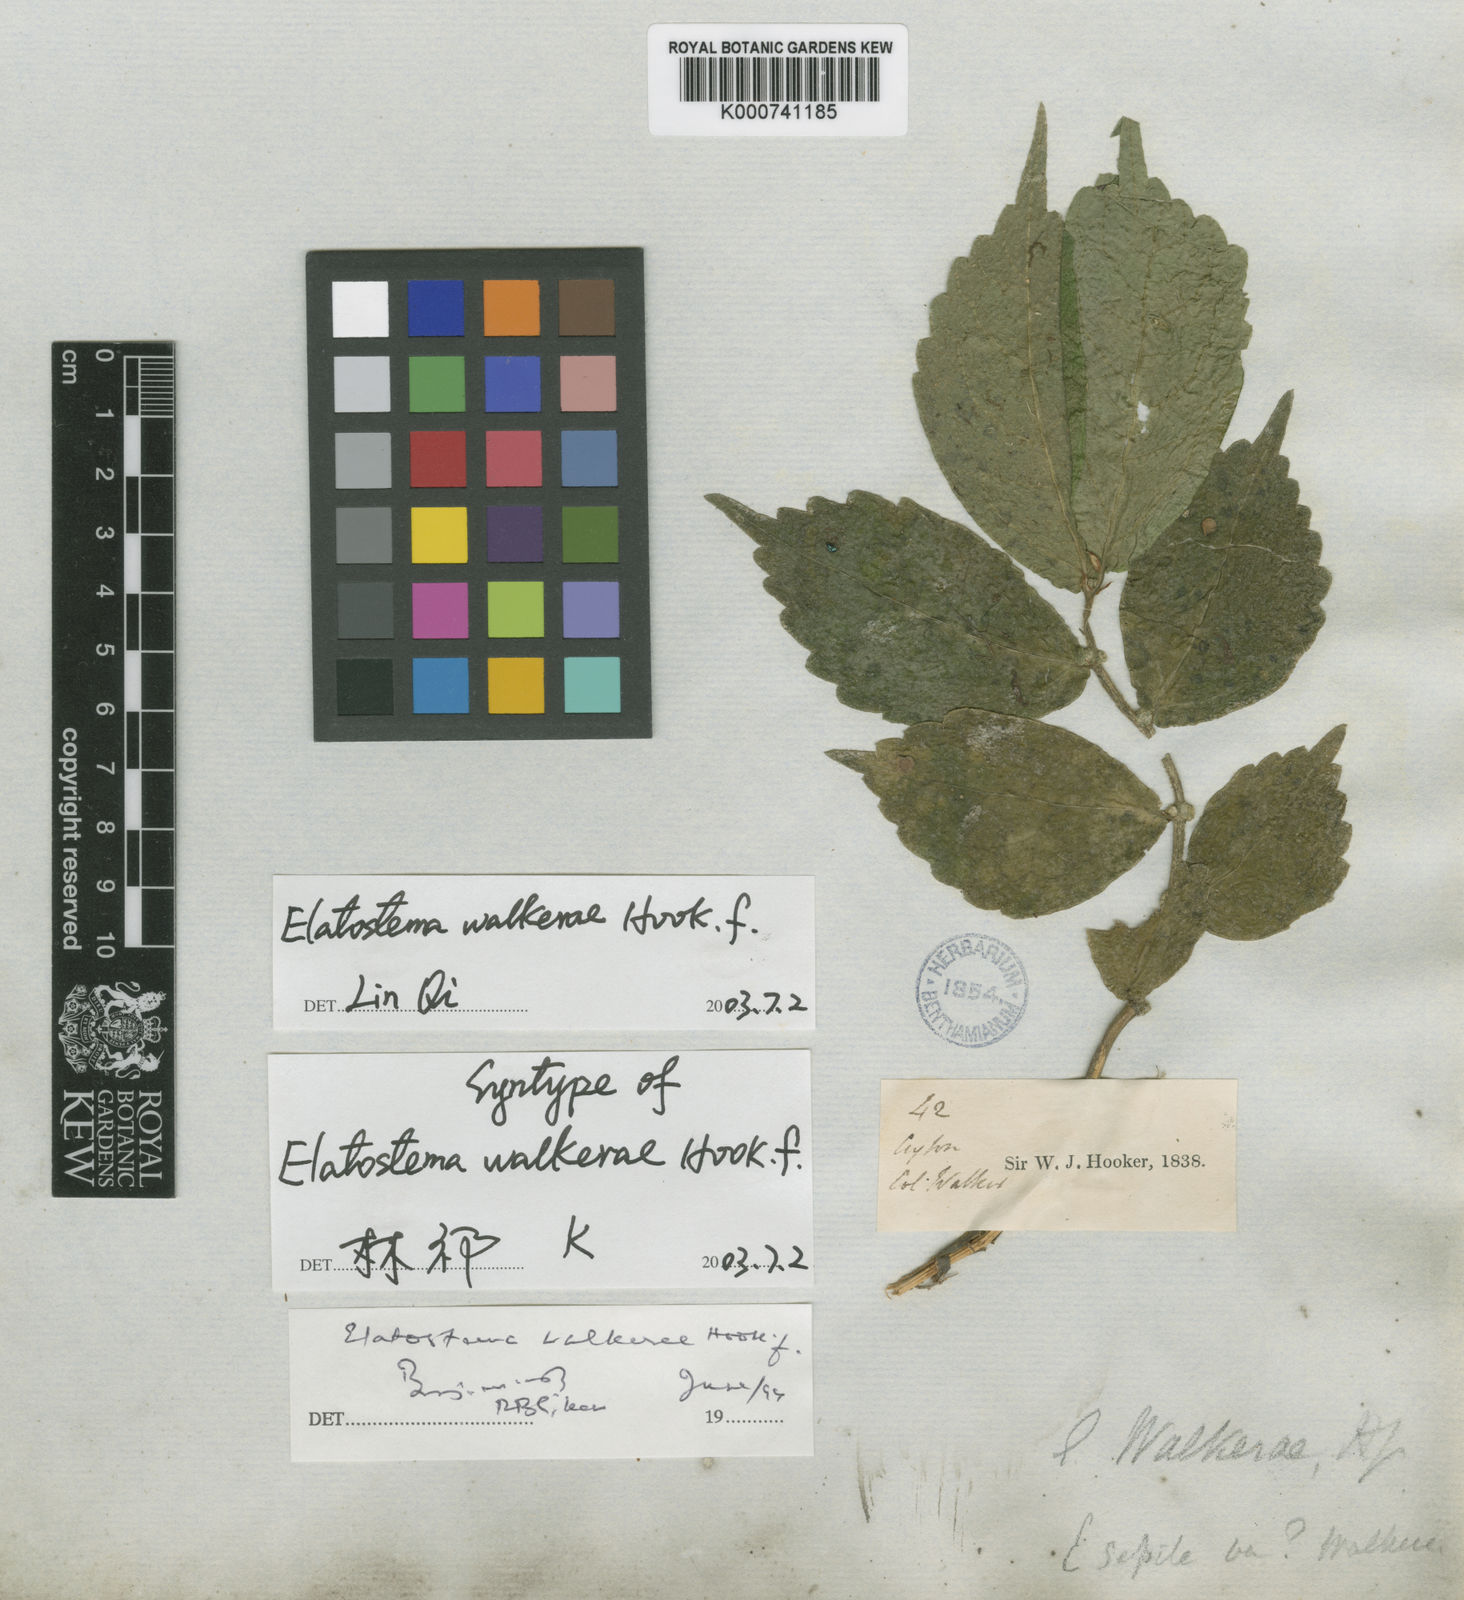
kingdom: Plantae
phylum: Tracheophyta
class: Magnoliopsida
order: Rosales
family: Urticaceae
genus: Elatostema
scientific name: Elatostema walkerae
